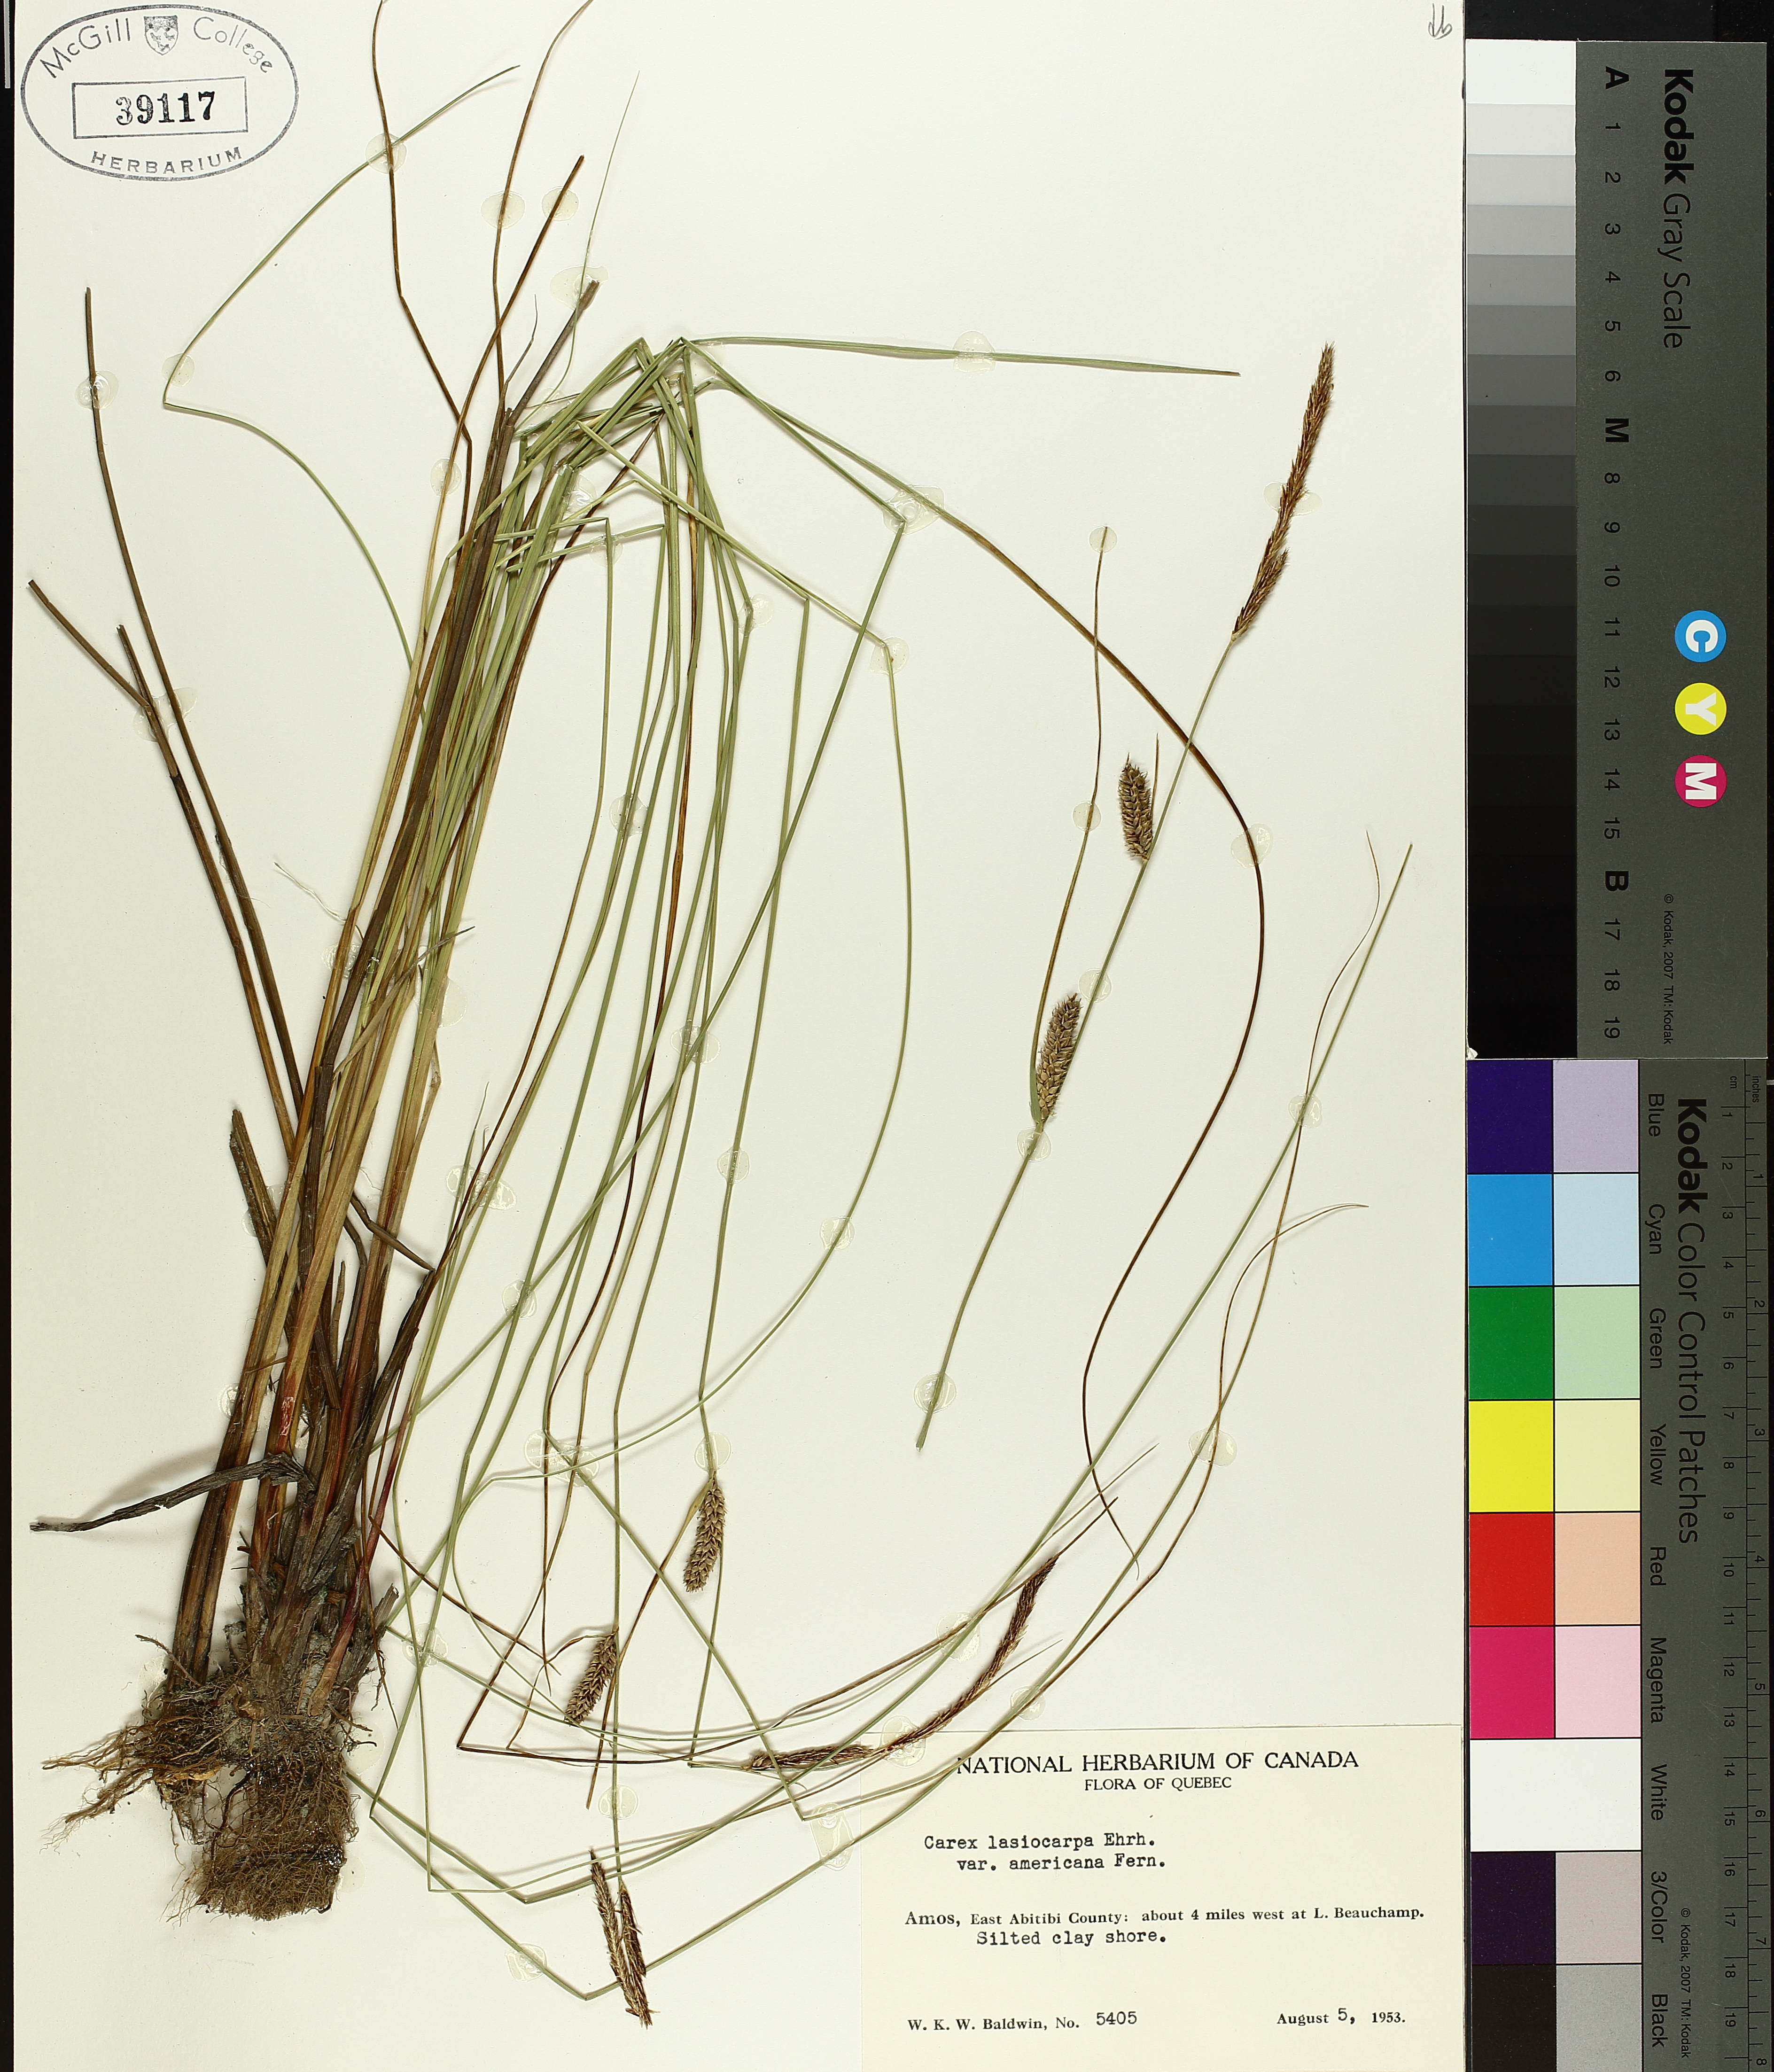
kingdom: Plantae
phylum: Tracheophyta
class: Liliopsida
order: Poales
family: Cyperaceae
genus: Carex
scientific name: Carex lasiocarpa
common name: Slender sedge
